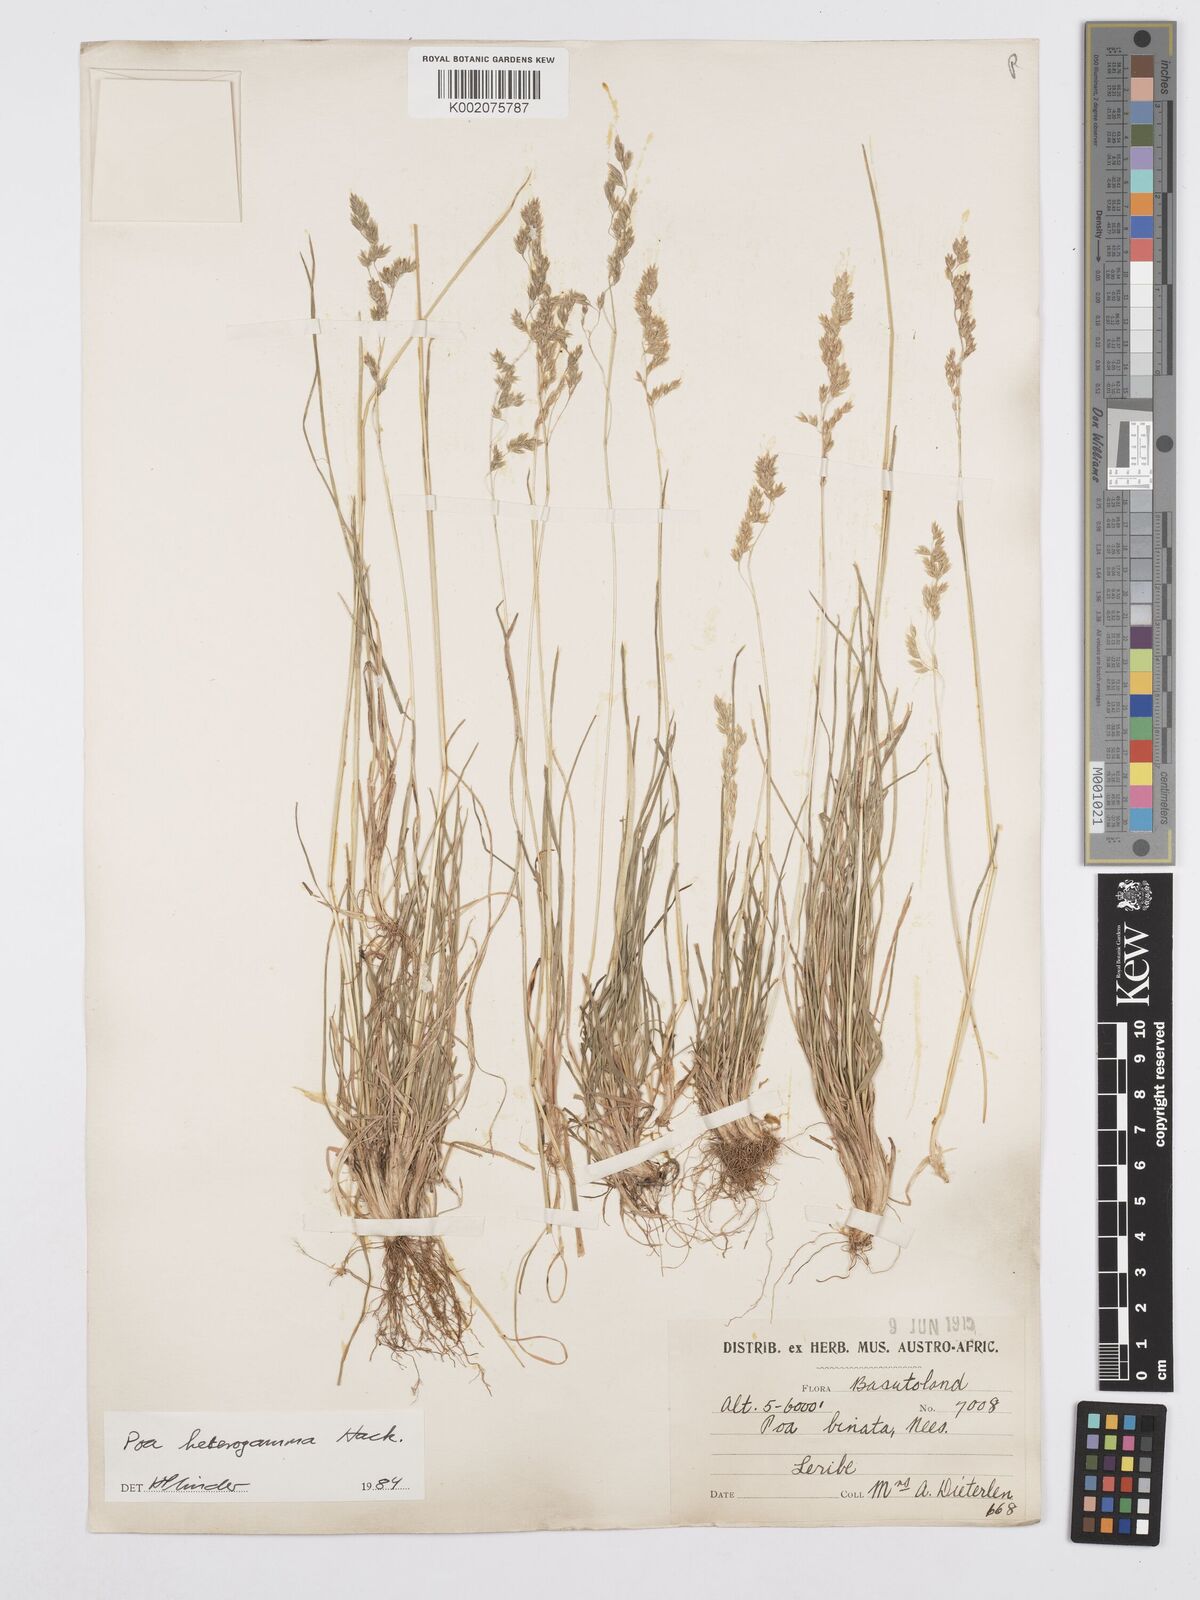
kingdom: Plantae
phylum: Tracheophyta
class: Liliopsida
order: Poales
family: Poaceae
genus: Poa
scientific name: Poa binata
